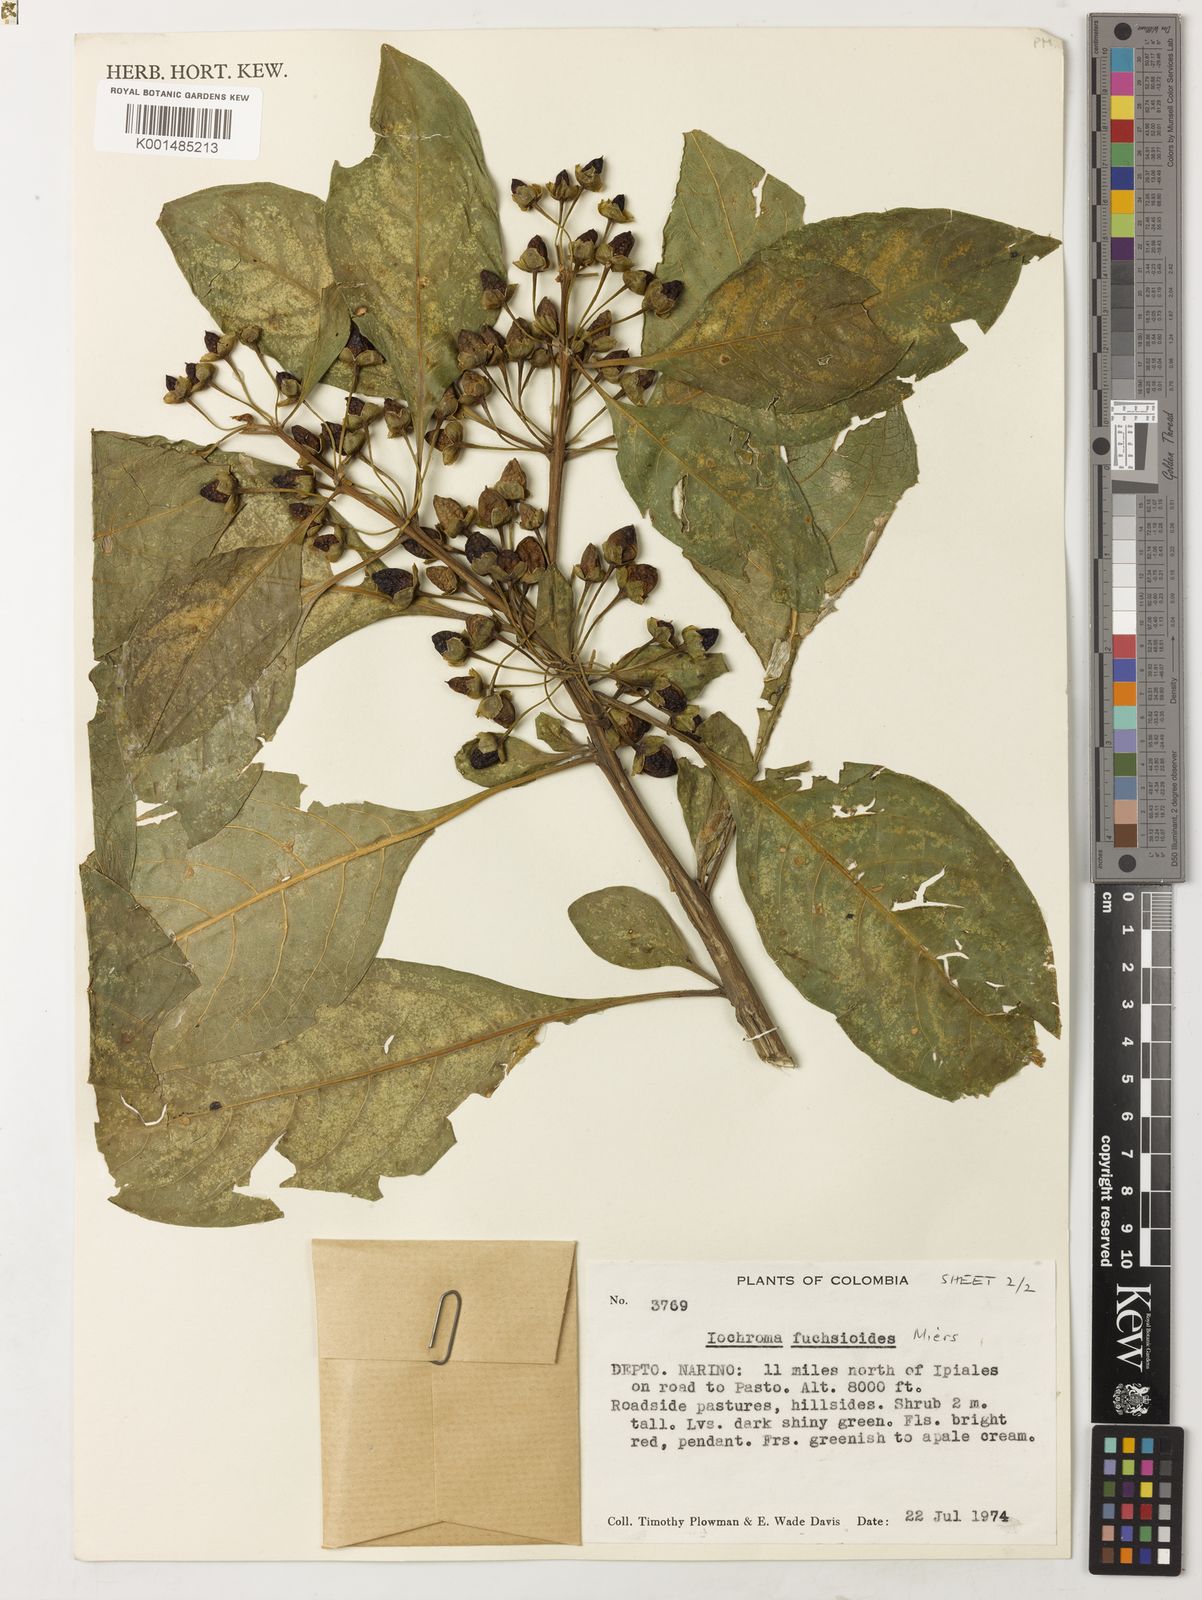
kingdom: Plantae
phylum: Tracheophyta
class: Magnoliopsida
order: Solanales
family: Solanaceae
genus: Iochroma
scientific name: Iochroma fuchsioides
